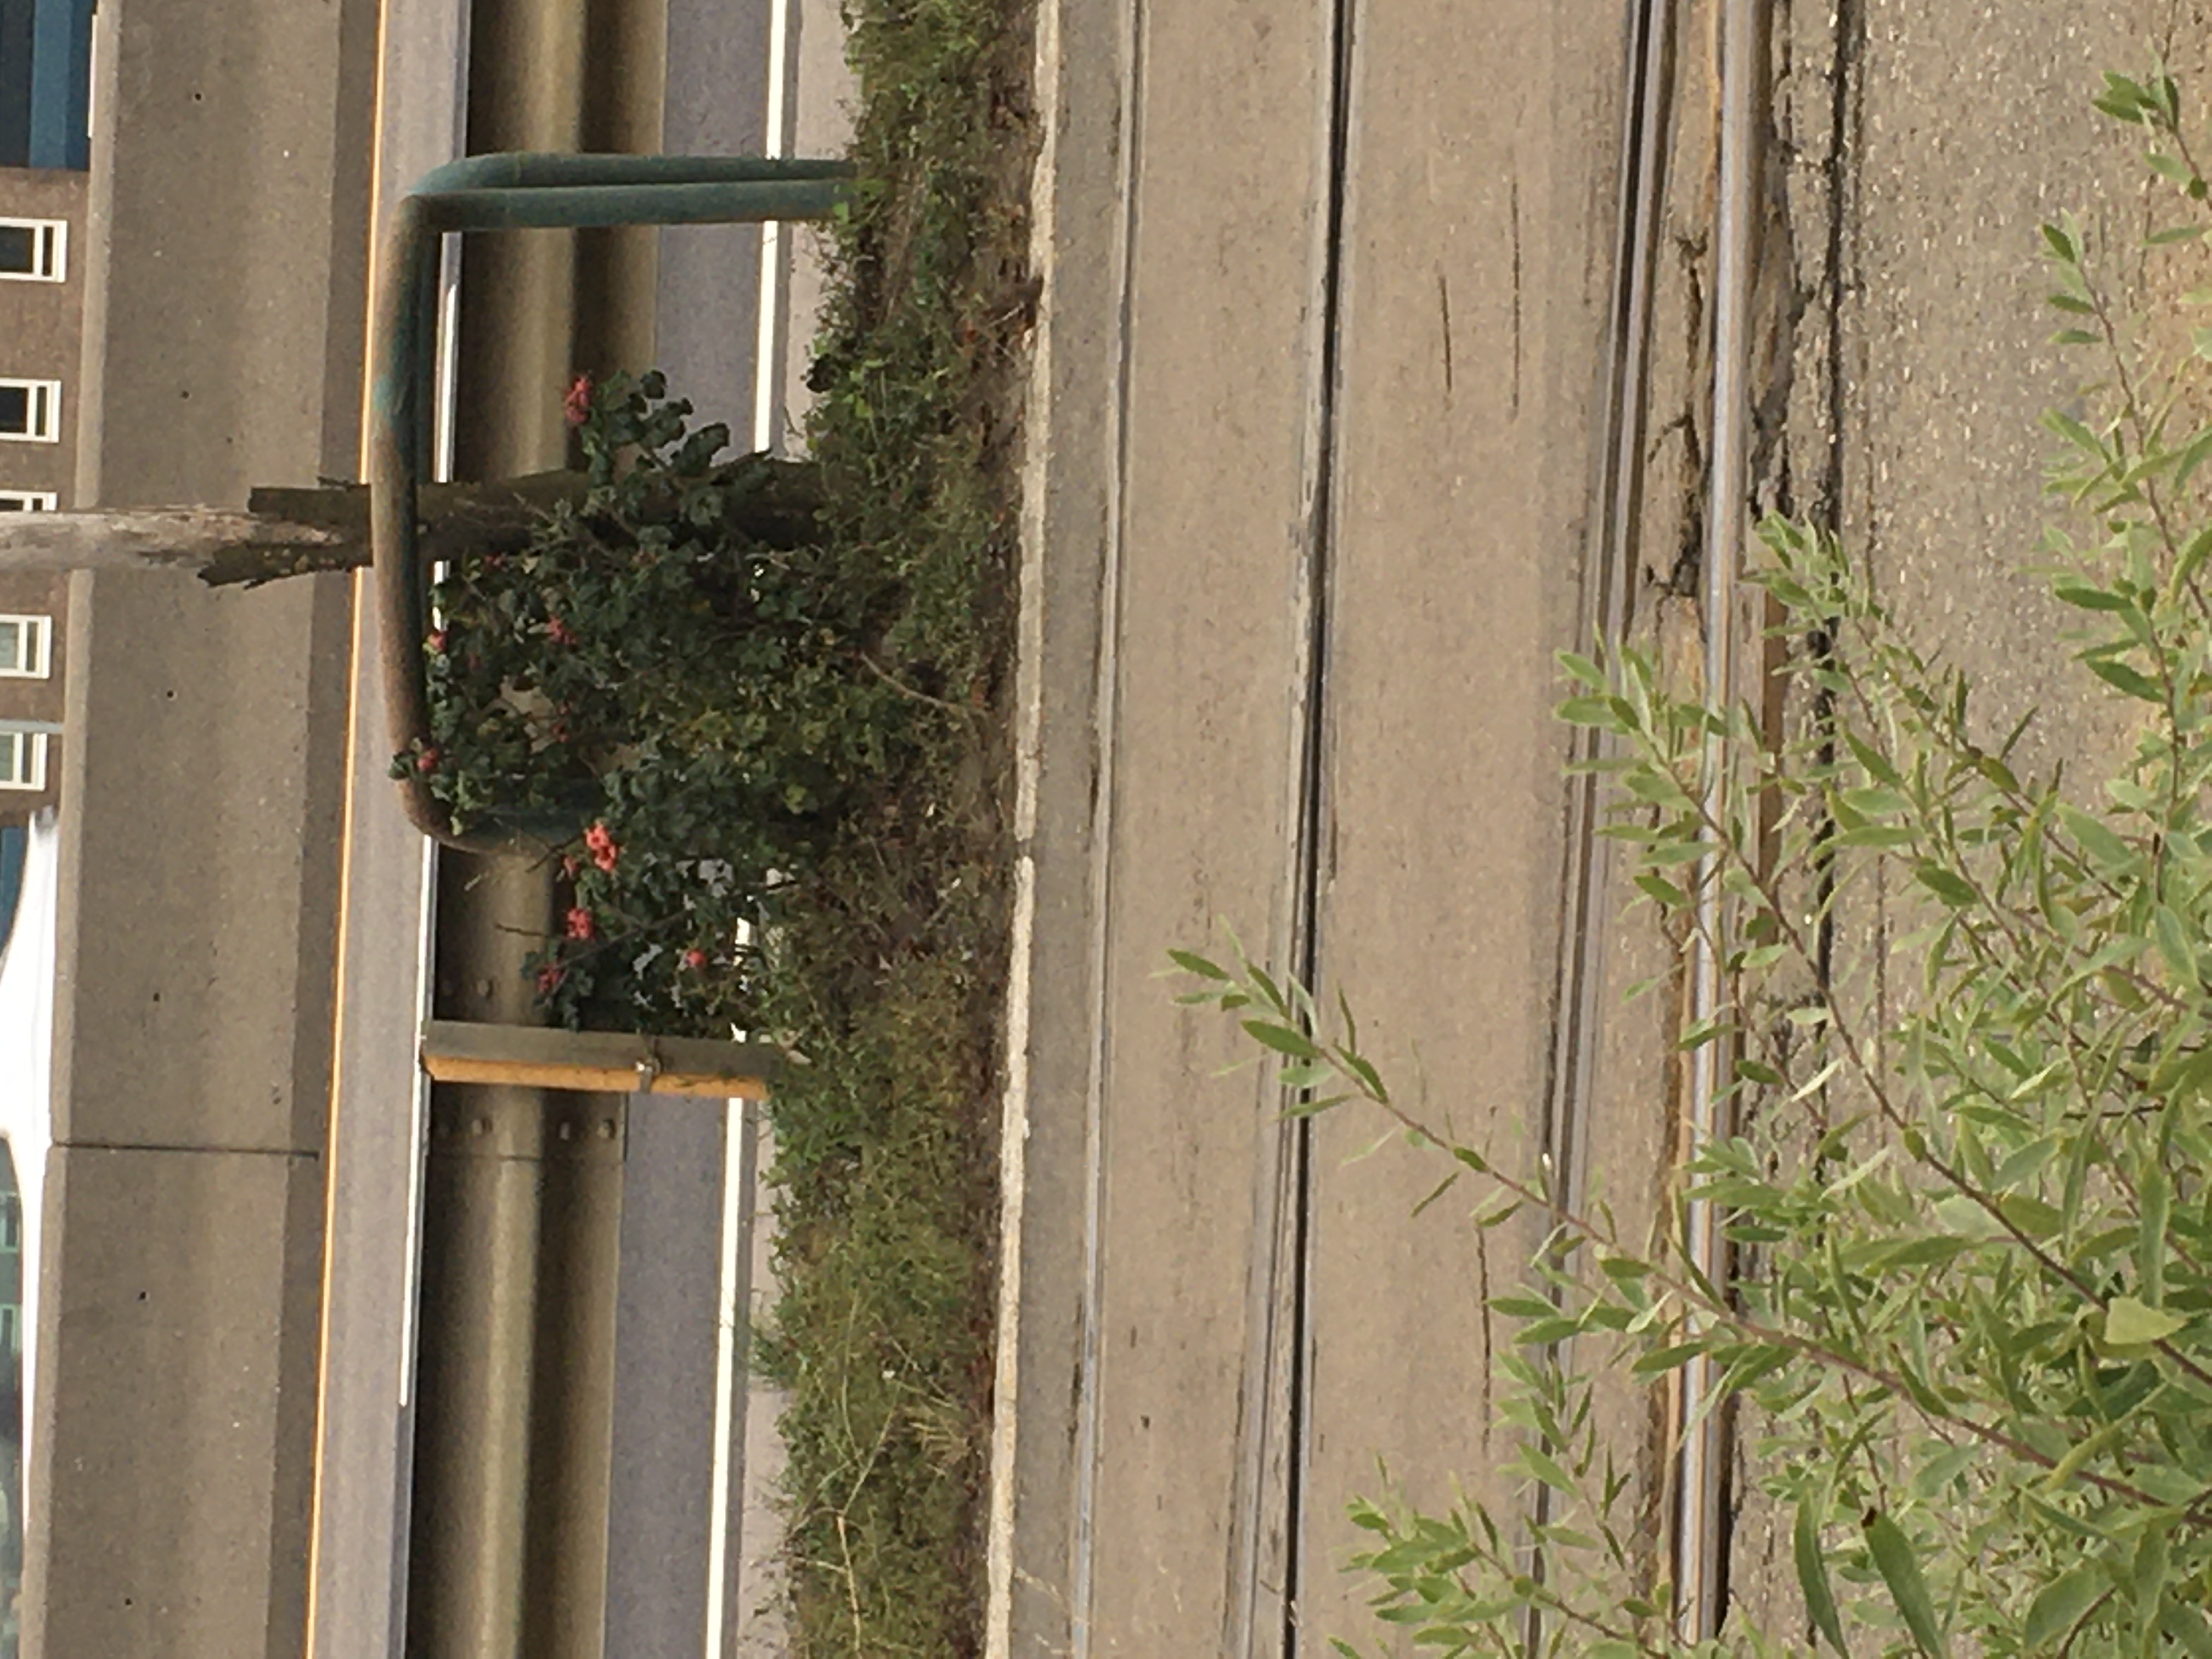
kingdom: Plantae
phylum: Tracheophyta
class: Magnoliopsida
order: Rosales
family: Rosaceae
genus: Rosa
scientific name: Rosa rugosa
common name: rynkerose
